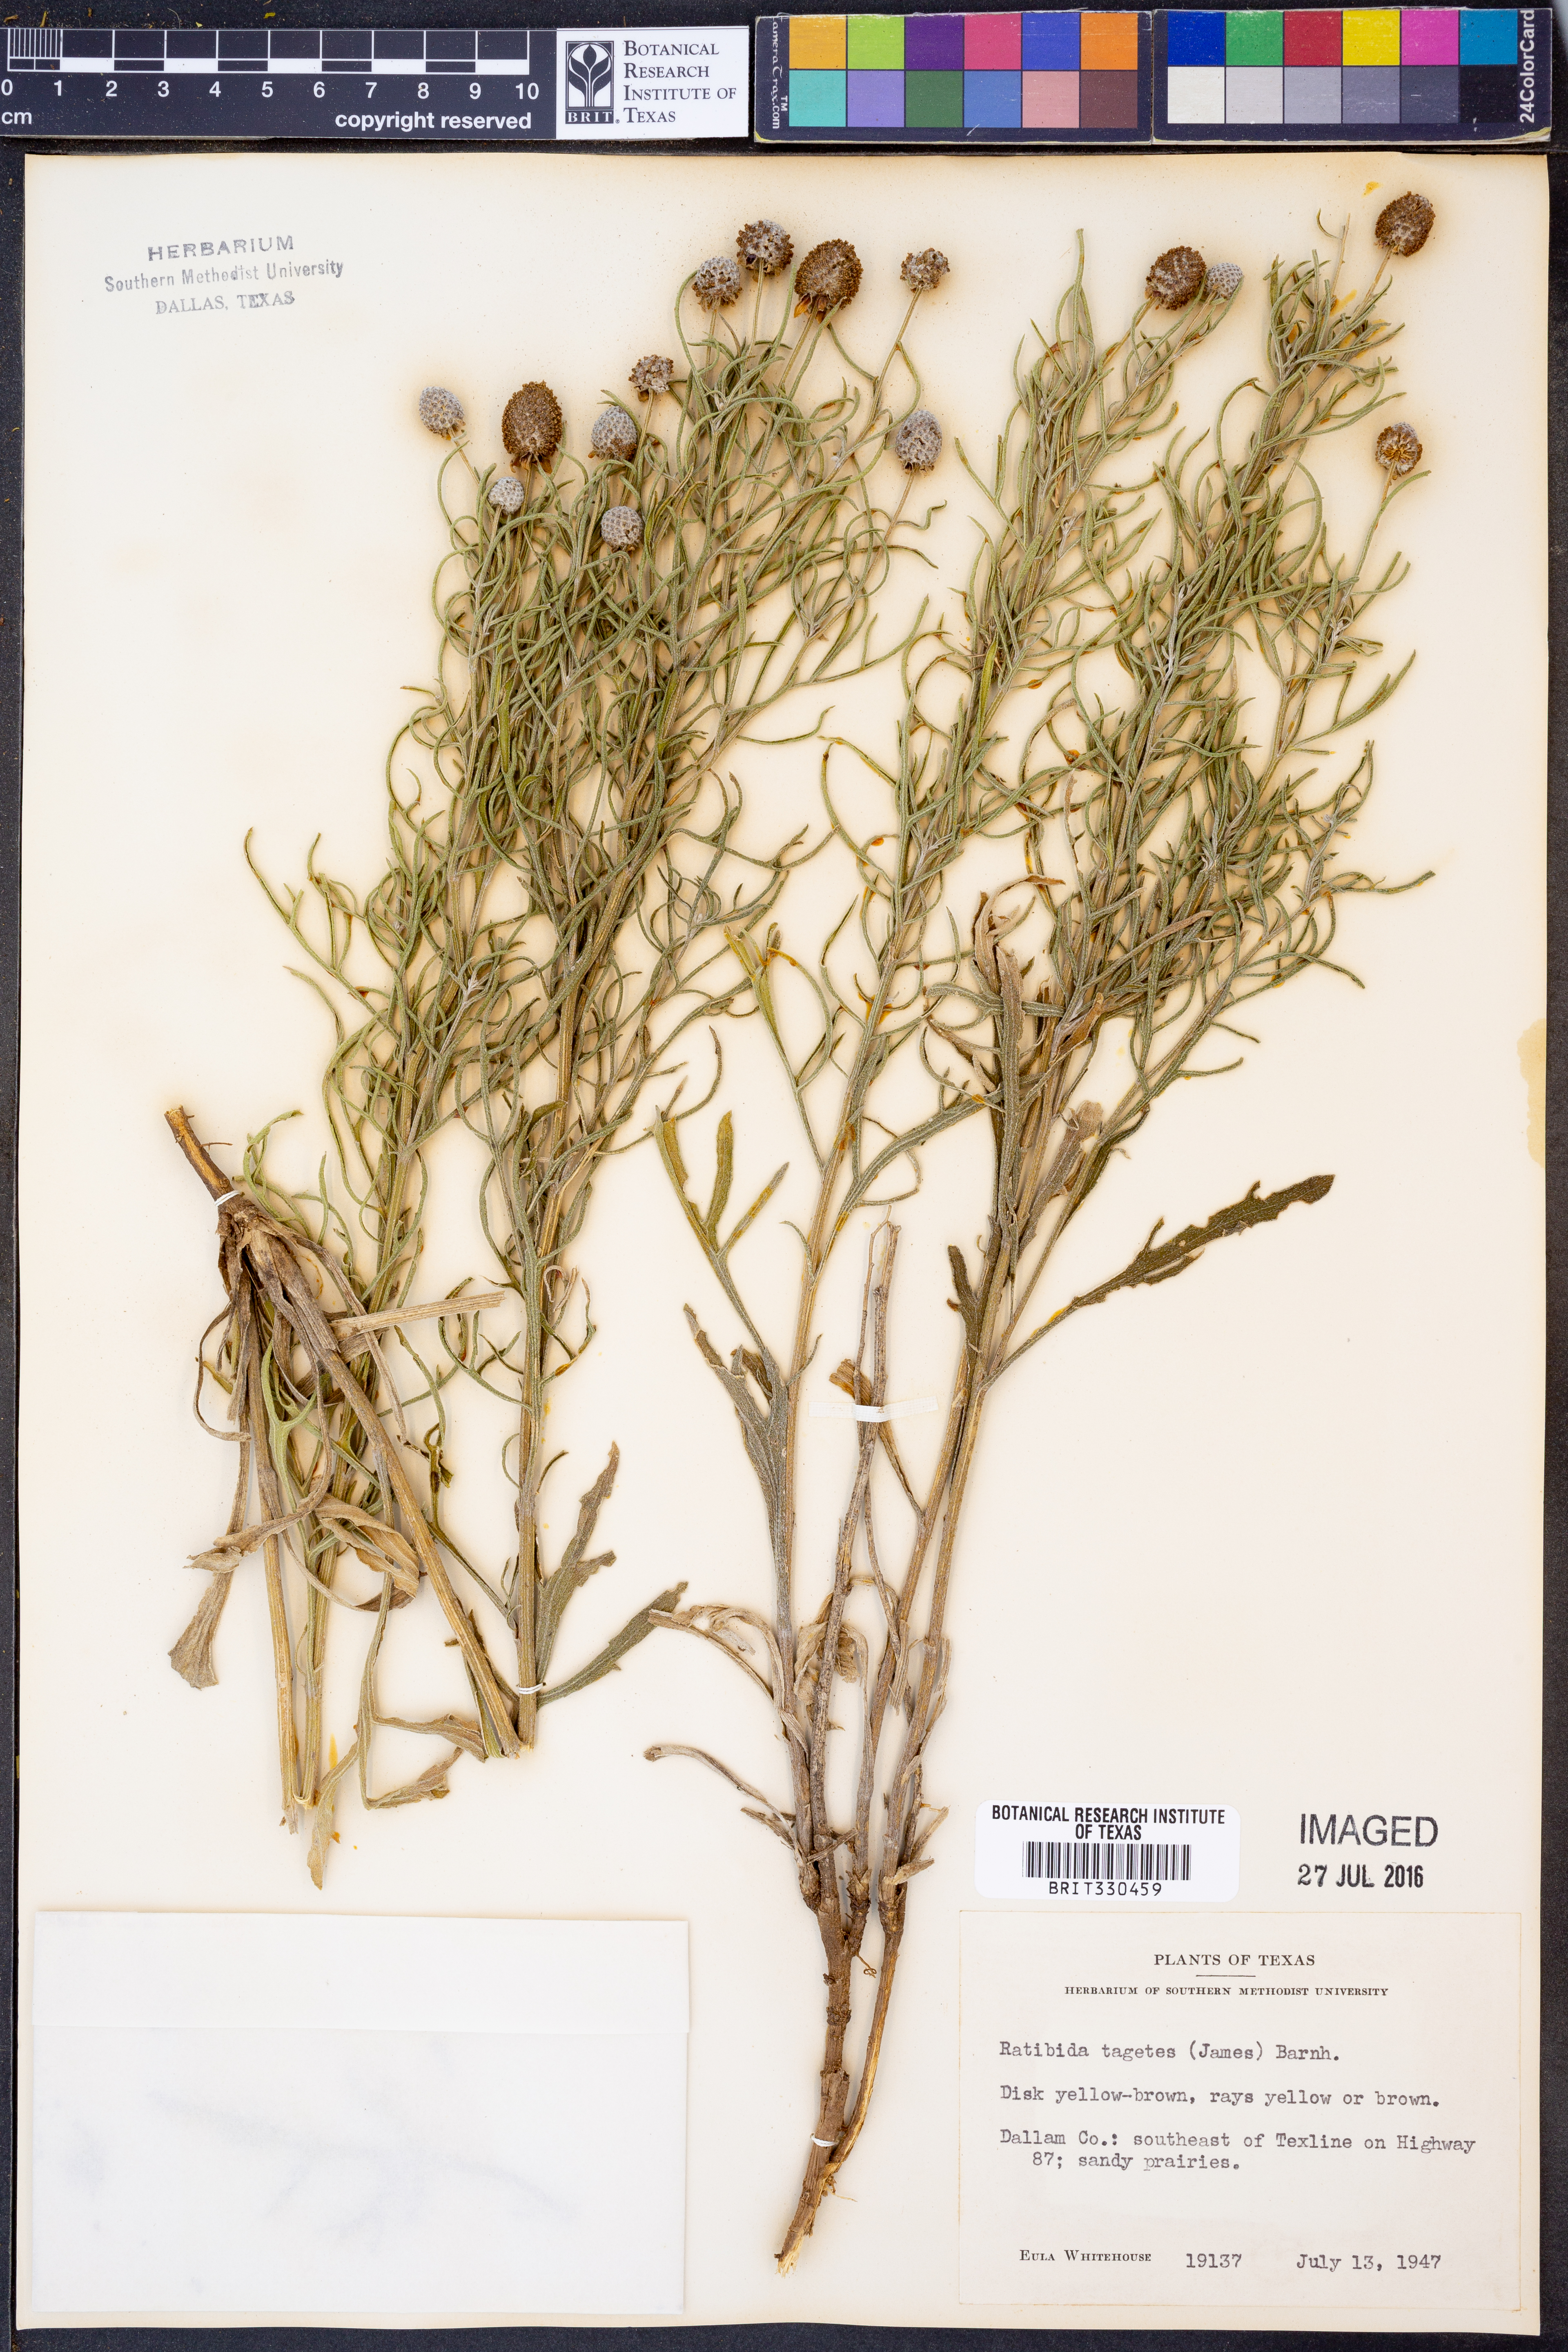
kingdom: Plantae
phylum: Tracheophyta
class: Magnoliopsida
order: Asterales
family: Asteraceae
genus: Ratibida
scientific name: Ratibida tagetes
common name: Green mexican-hat
